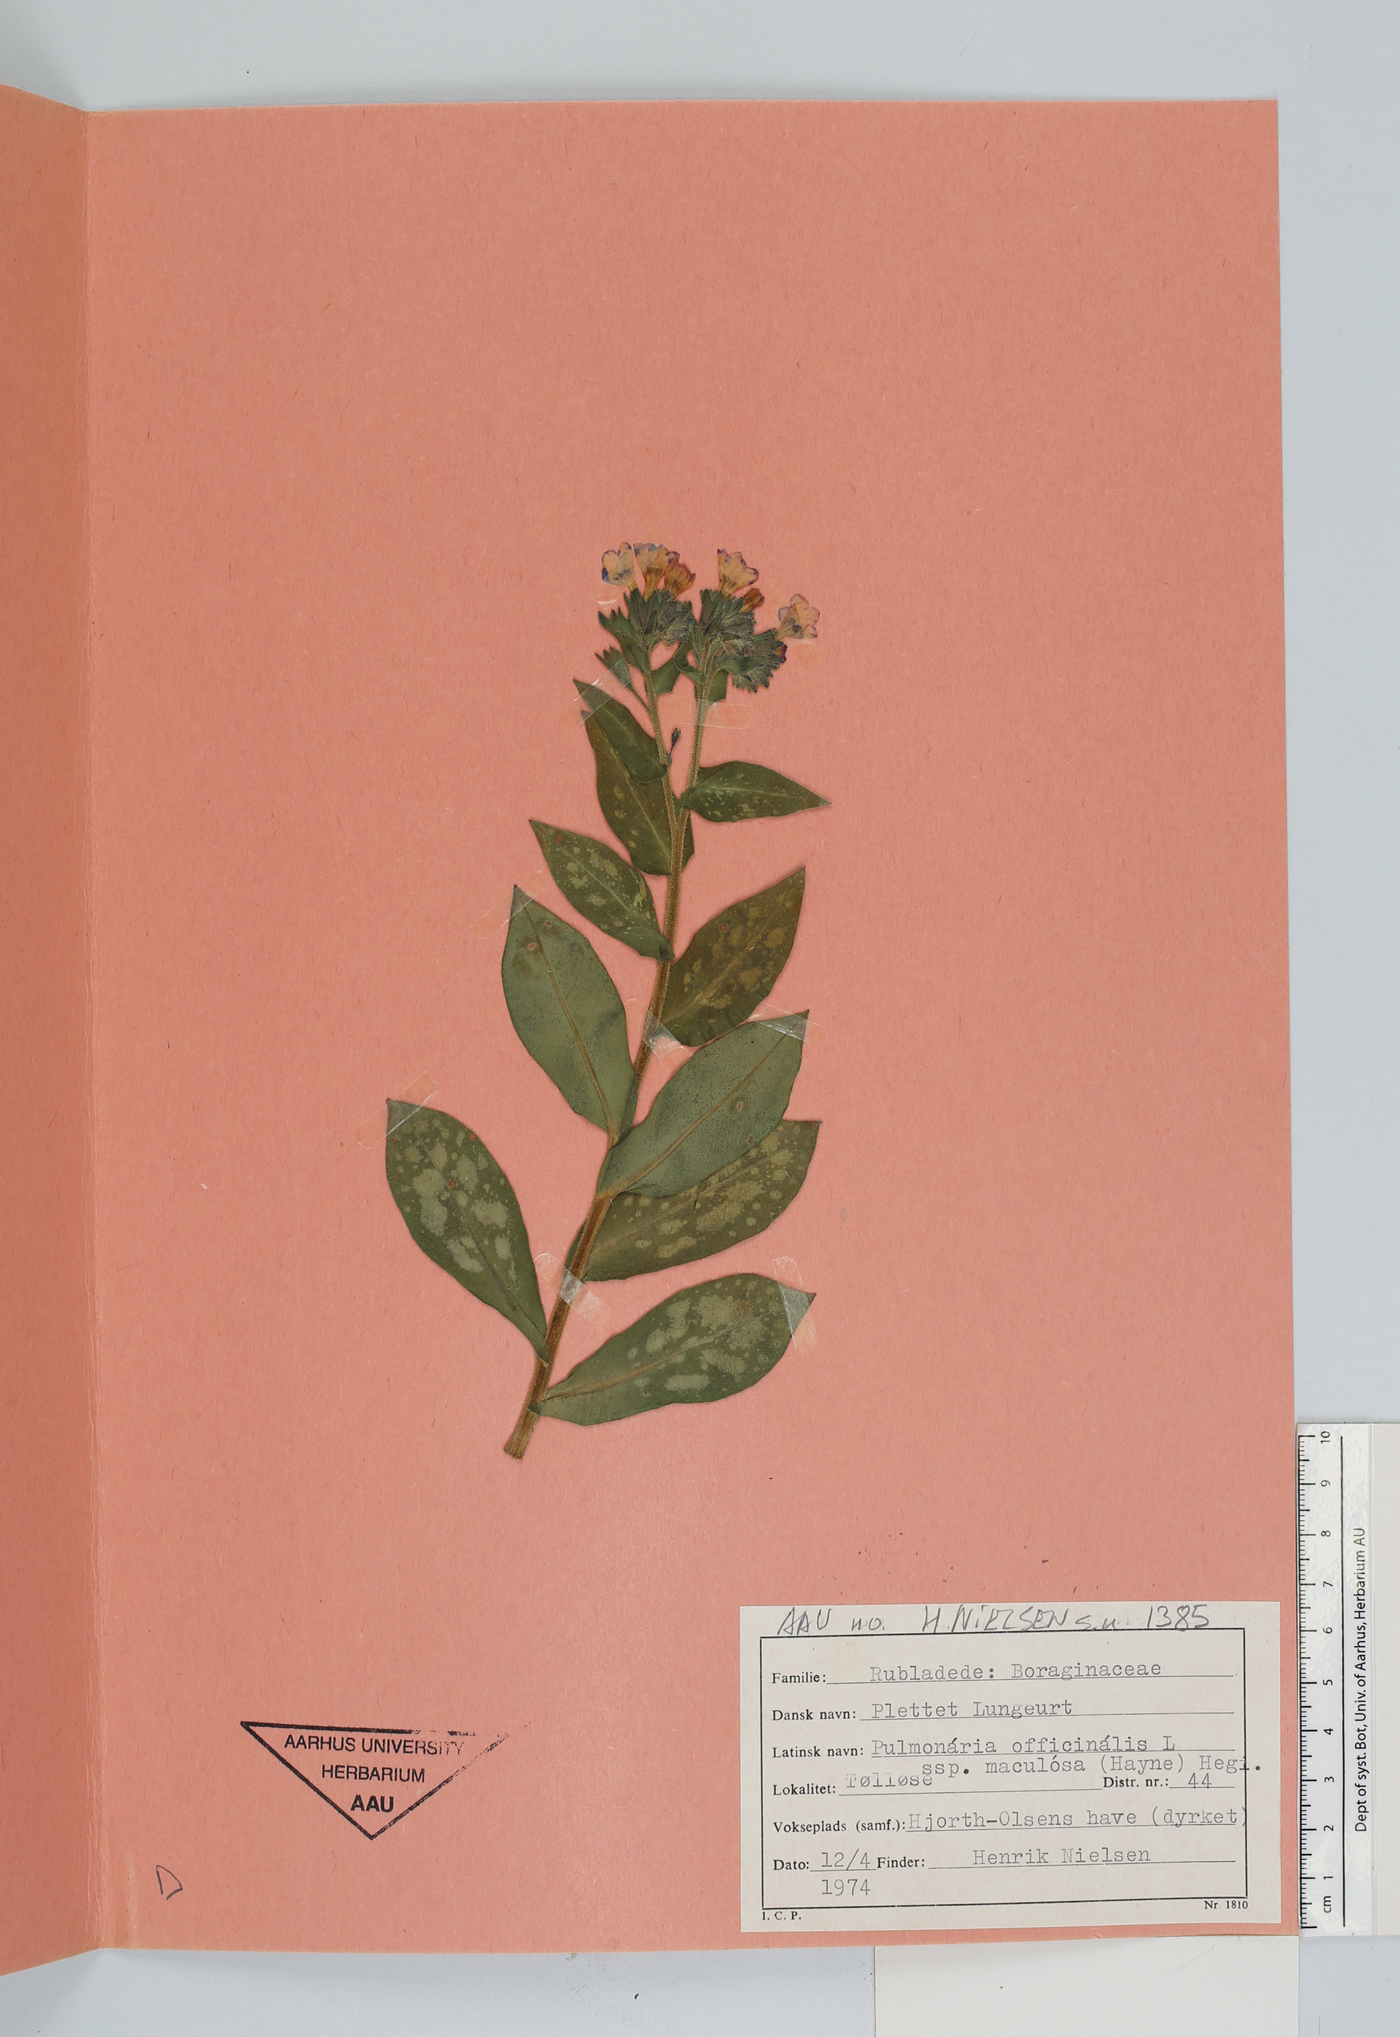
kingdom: Plantae
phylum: Tracheophyta
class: Magnoliopsida
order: Boraginales
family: Boraginaceae
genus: Pulmonaria
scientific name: Pulmonaria officinalis
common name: Lungwort
